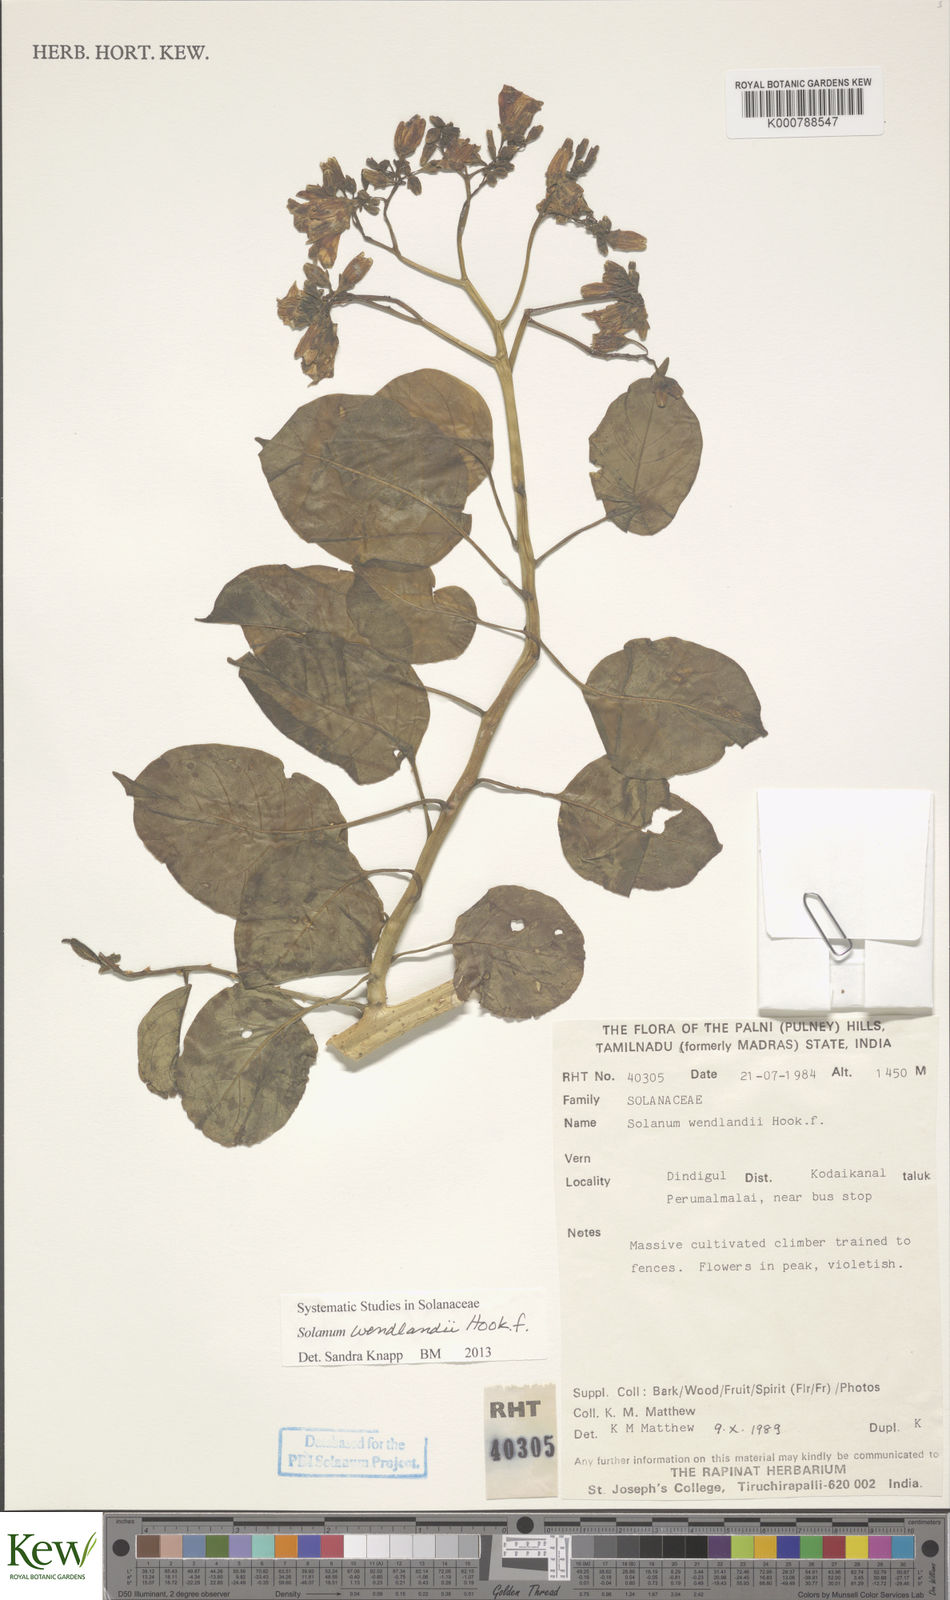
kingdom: Plantae
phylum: Tracheophyta
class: Magnoliopsida
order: Solanales
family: Solanaceae
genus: Solanum
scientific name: Solanum wendlandii
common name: Costa rican nightshade
